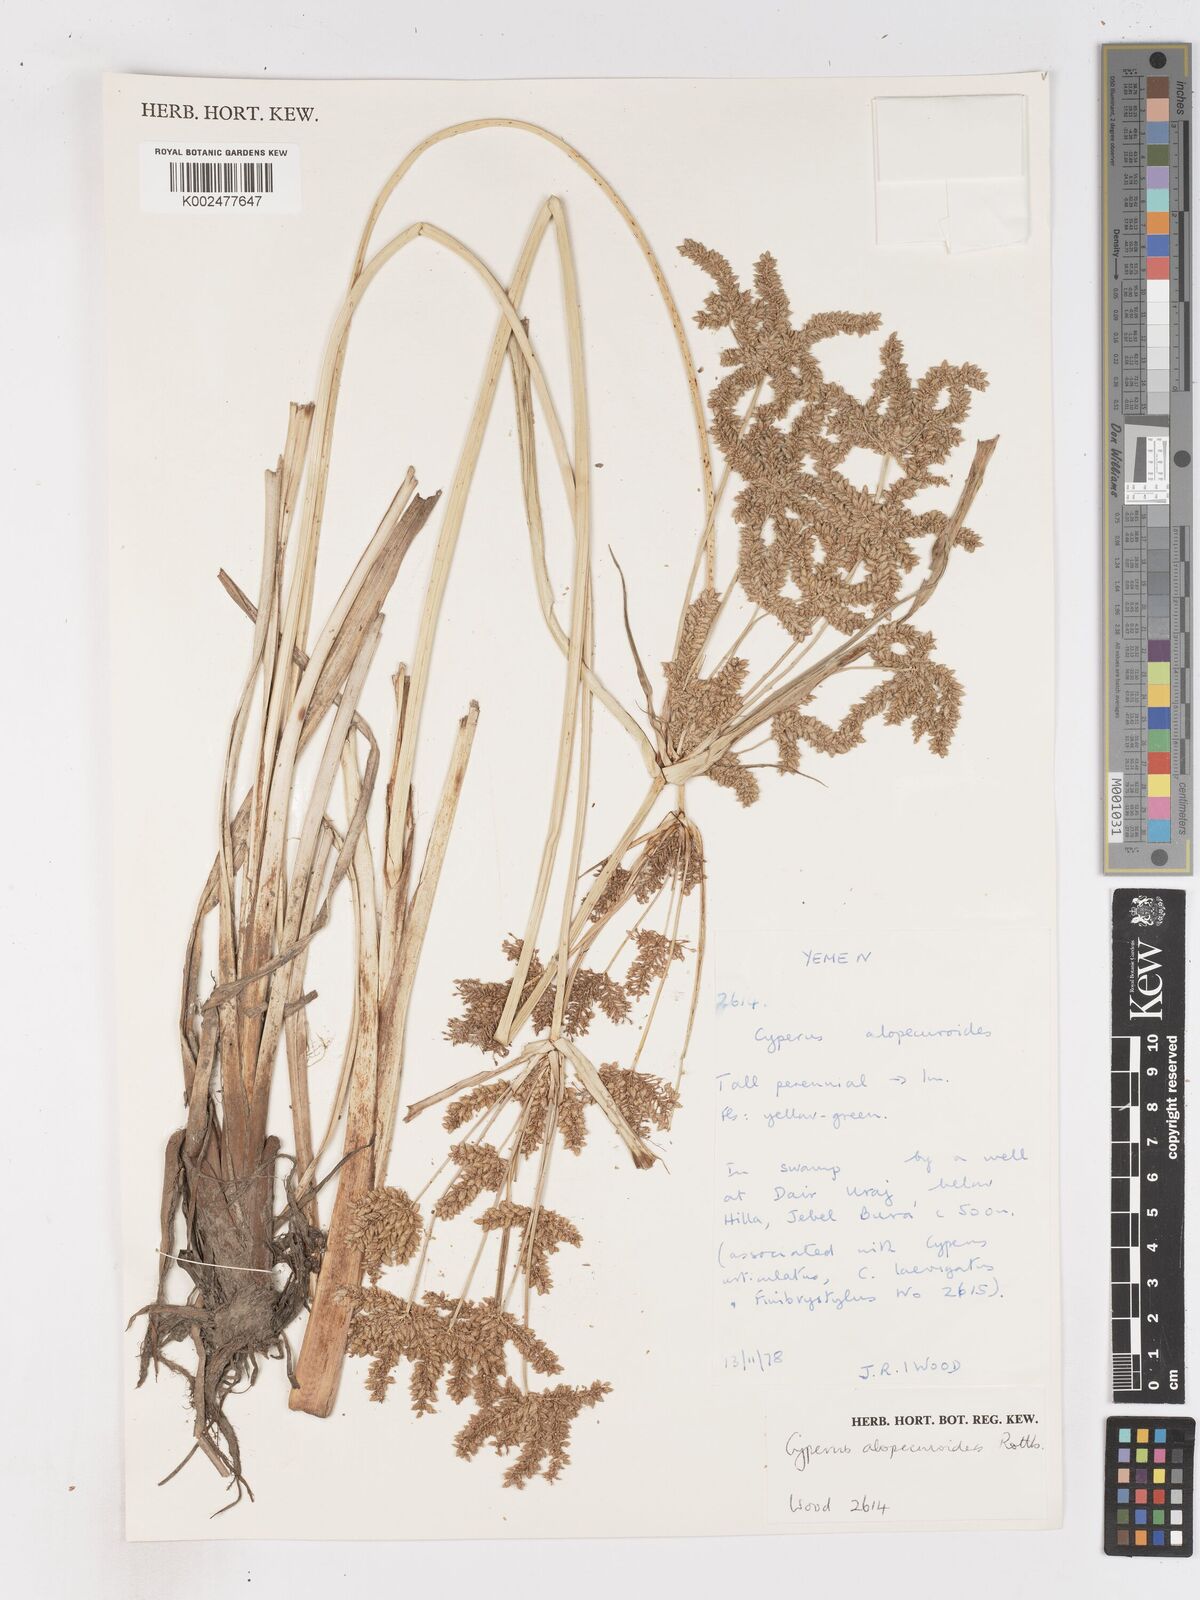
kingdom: Plantae
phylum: Tracheophyta
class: Liliopsida
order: Poales
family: Cyperaceae
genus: Cyperus
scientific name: Cyperus alopecuroides
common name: Foxtail flatsedge
